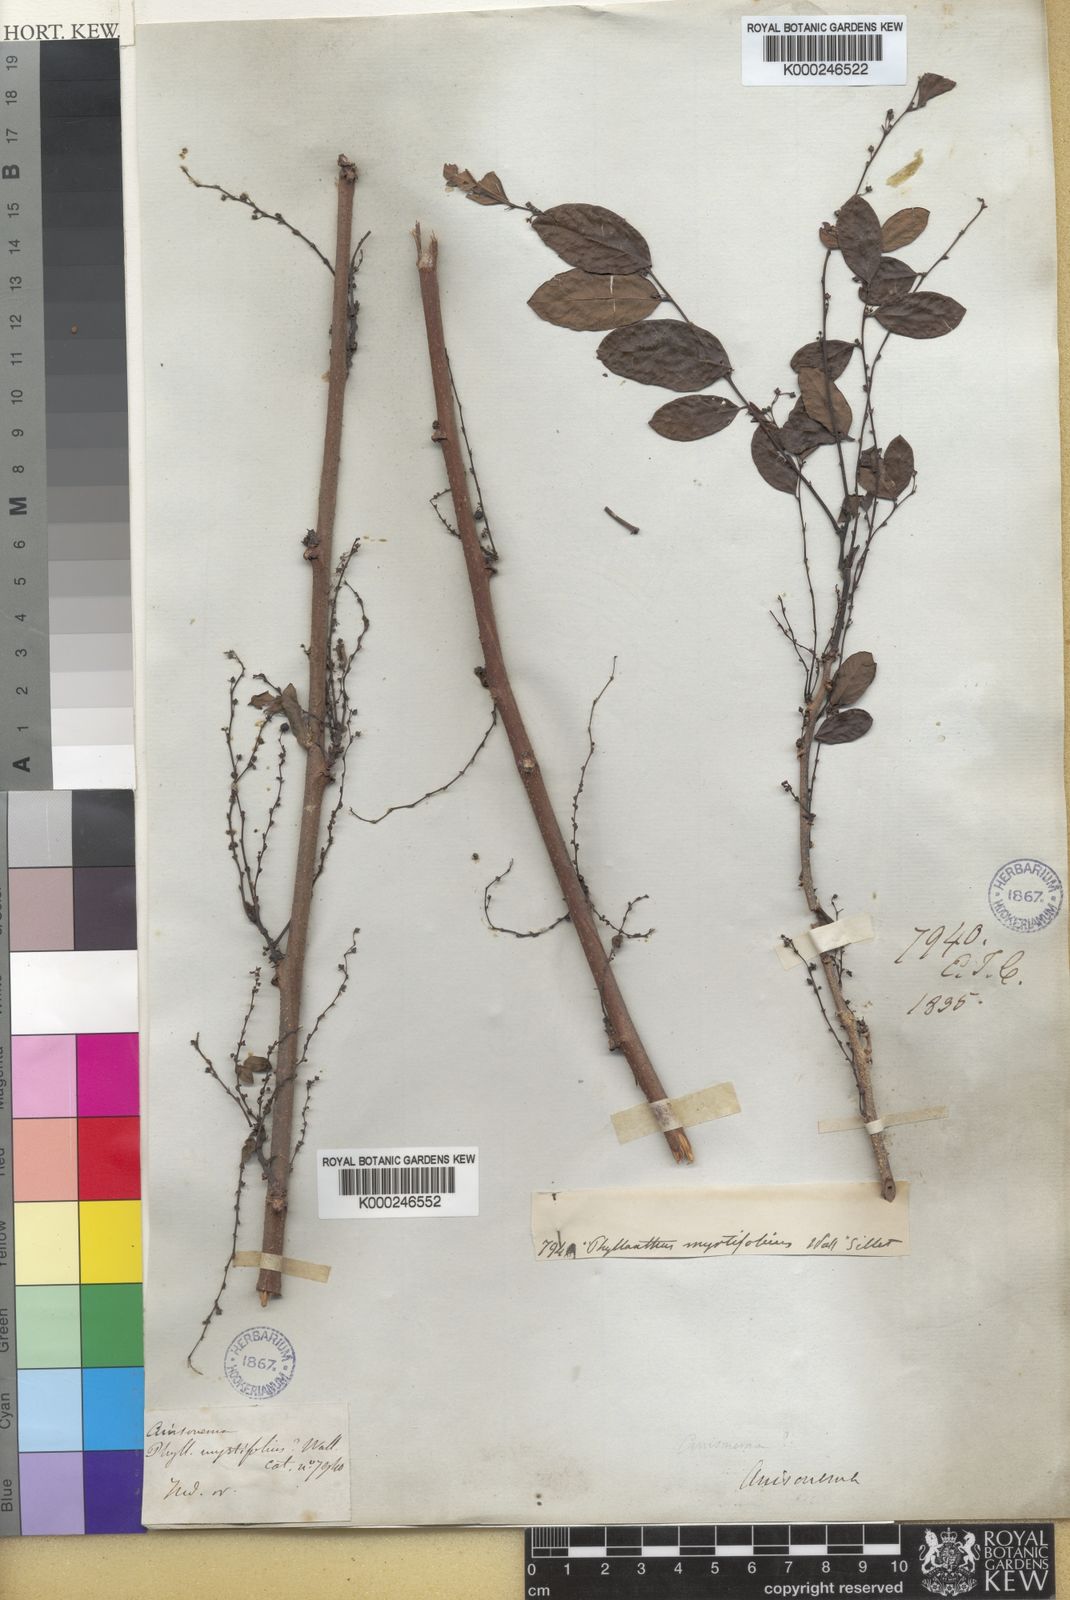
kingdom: Plantae
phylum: Tracheophyta
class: Magnoliopsida
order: Malpighiales
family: Phyllanthaceae
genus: Phyllanthus
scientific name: Phyllanthus reticulatus
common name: Potato bush
